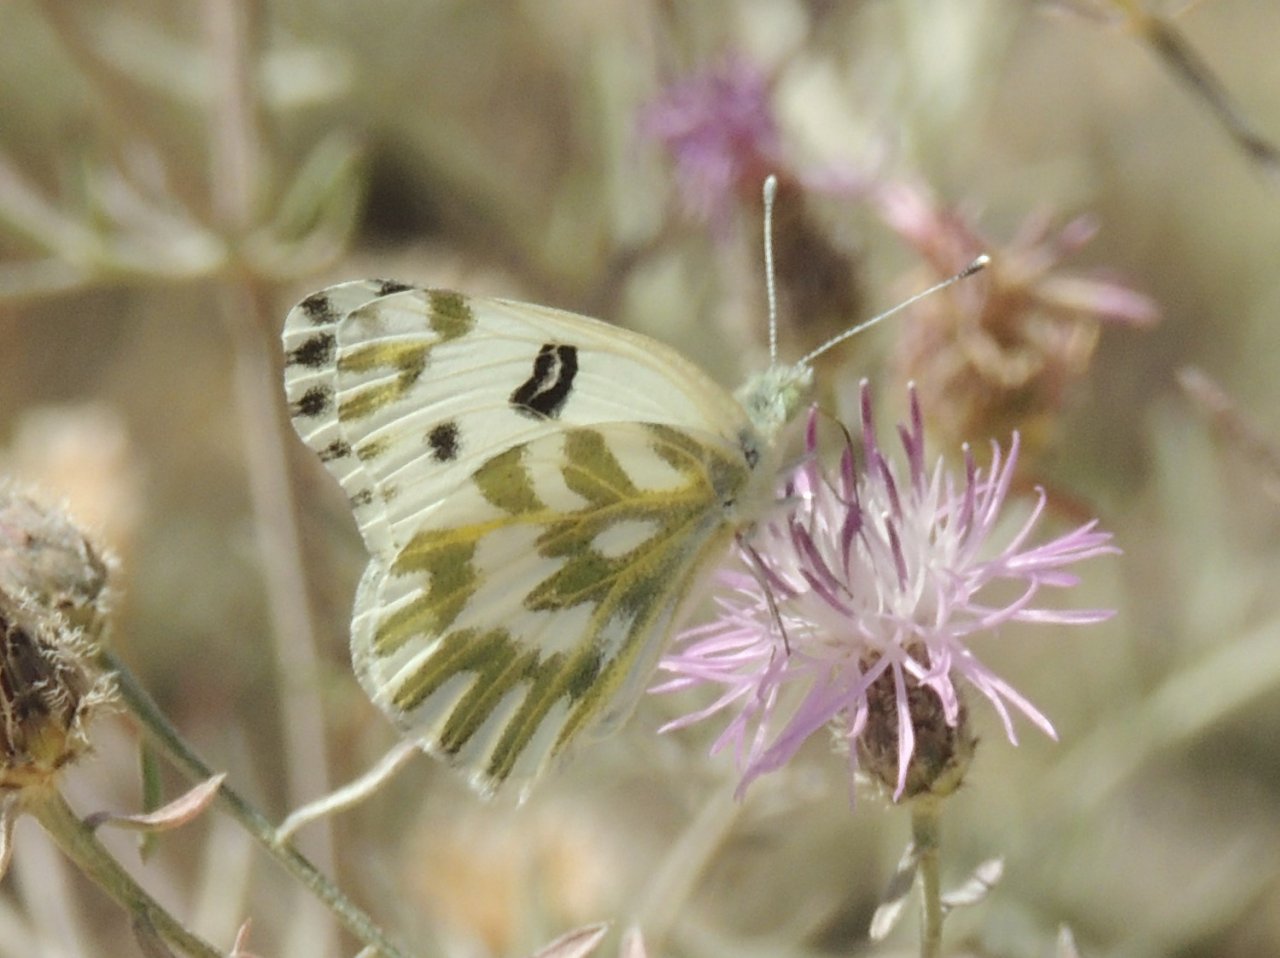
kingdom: Animalia
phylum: Arthropoda
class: Insecta
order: Lepidoptera
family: Pieridae
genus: Pontia
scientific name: Pontia beckerii
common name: Becker's White
